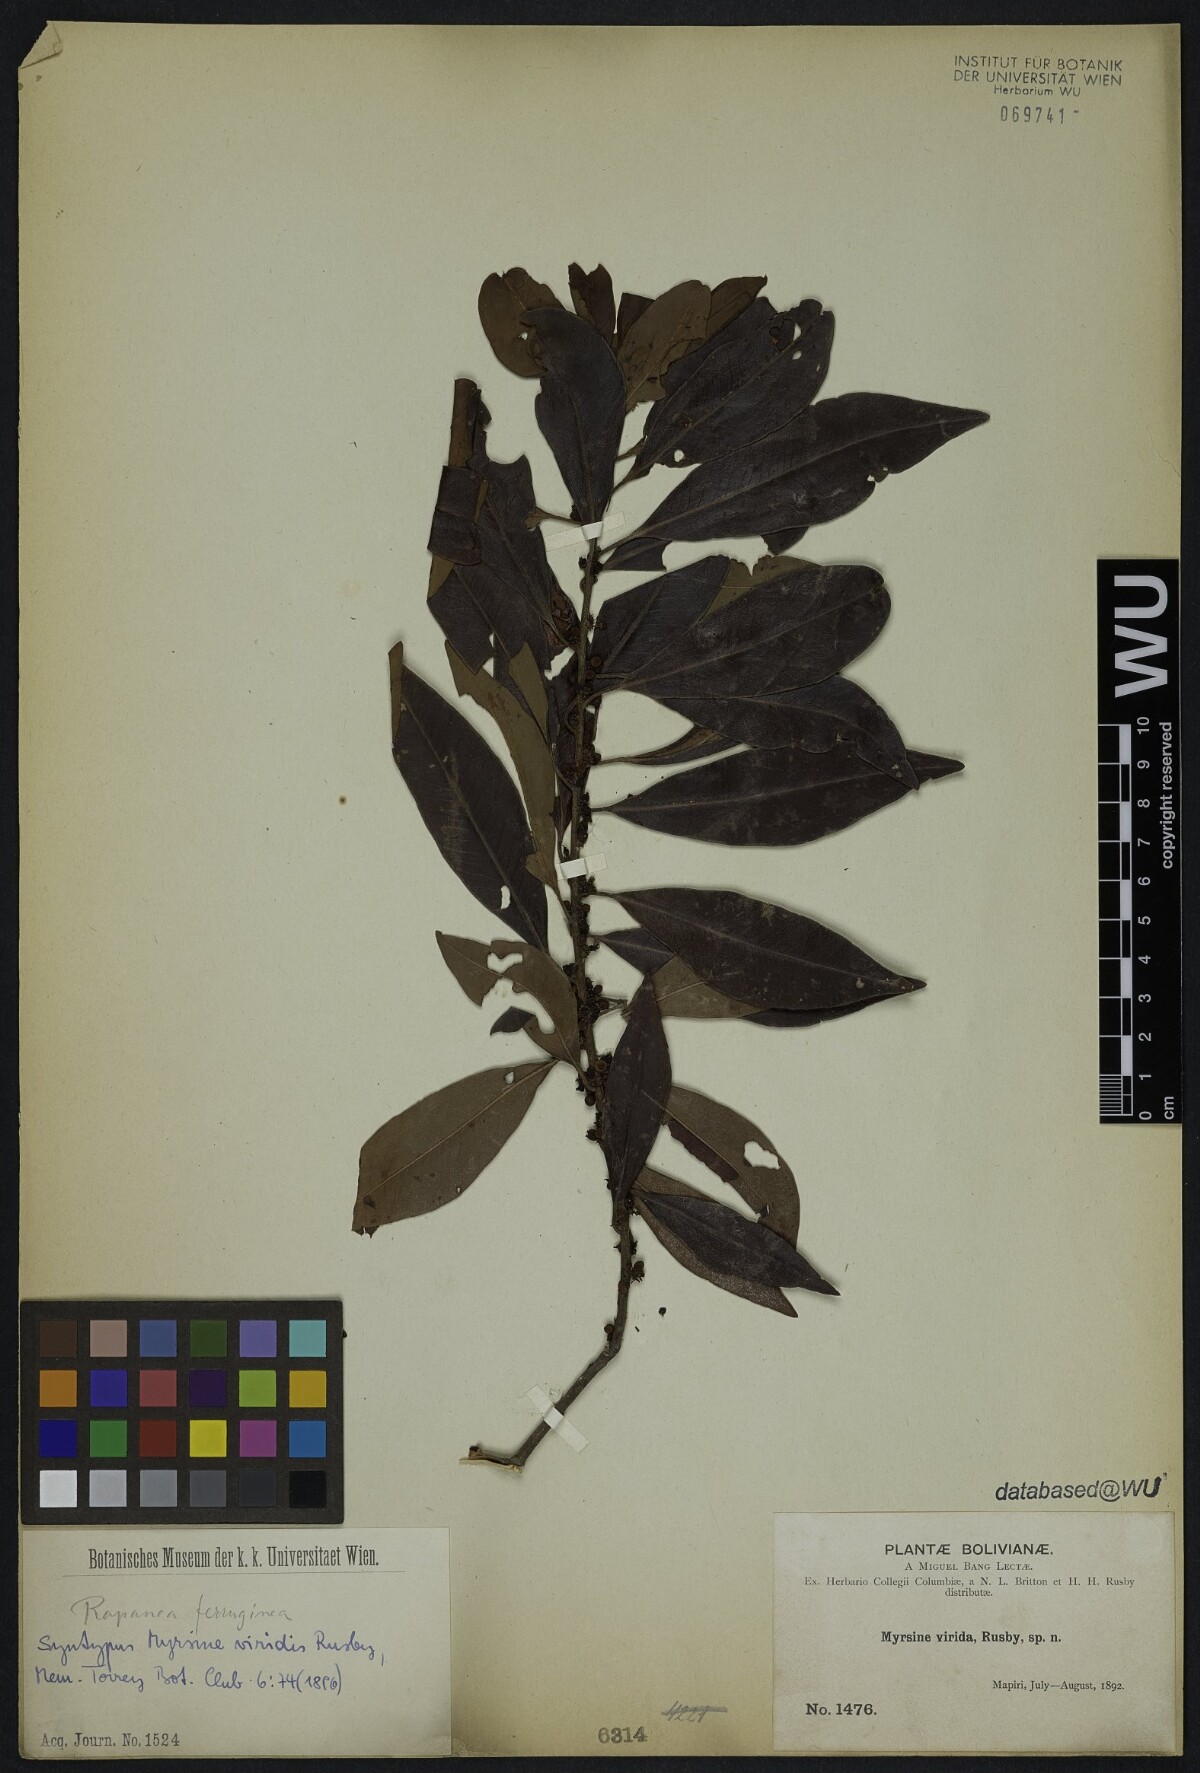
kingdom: Plantae
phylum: Tracheophyta
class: Magnoliopsida
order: Ericales
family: Primulaceae
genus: Myrsine
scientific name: Myrsine coriacea
